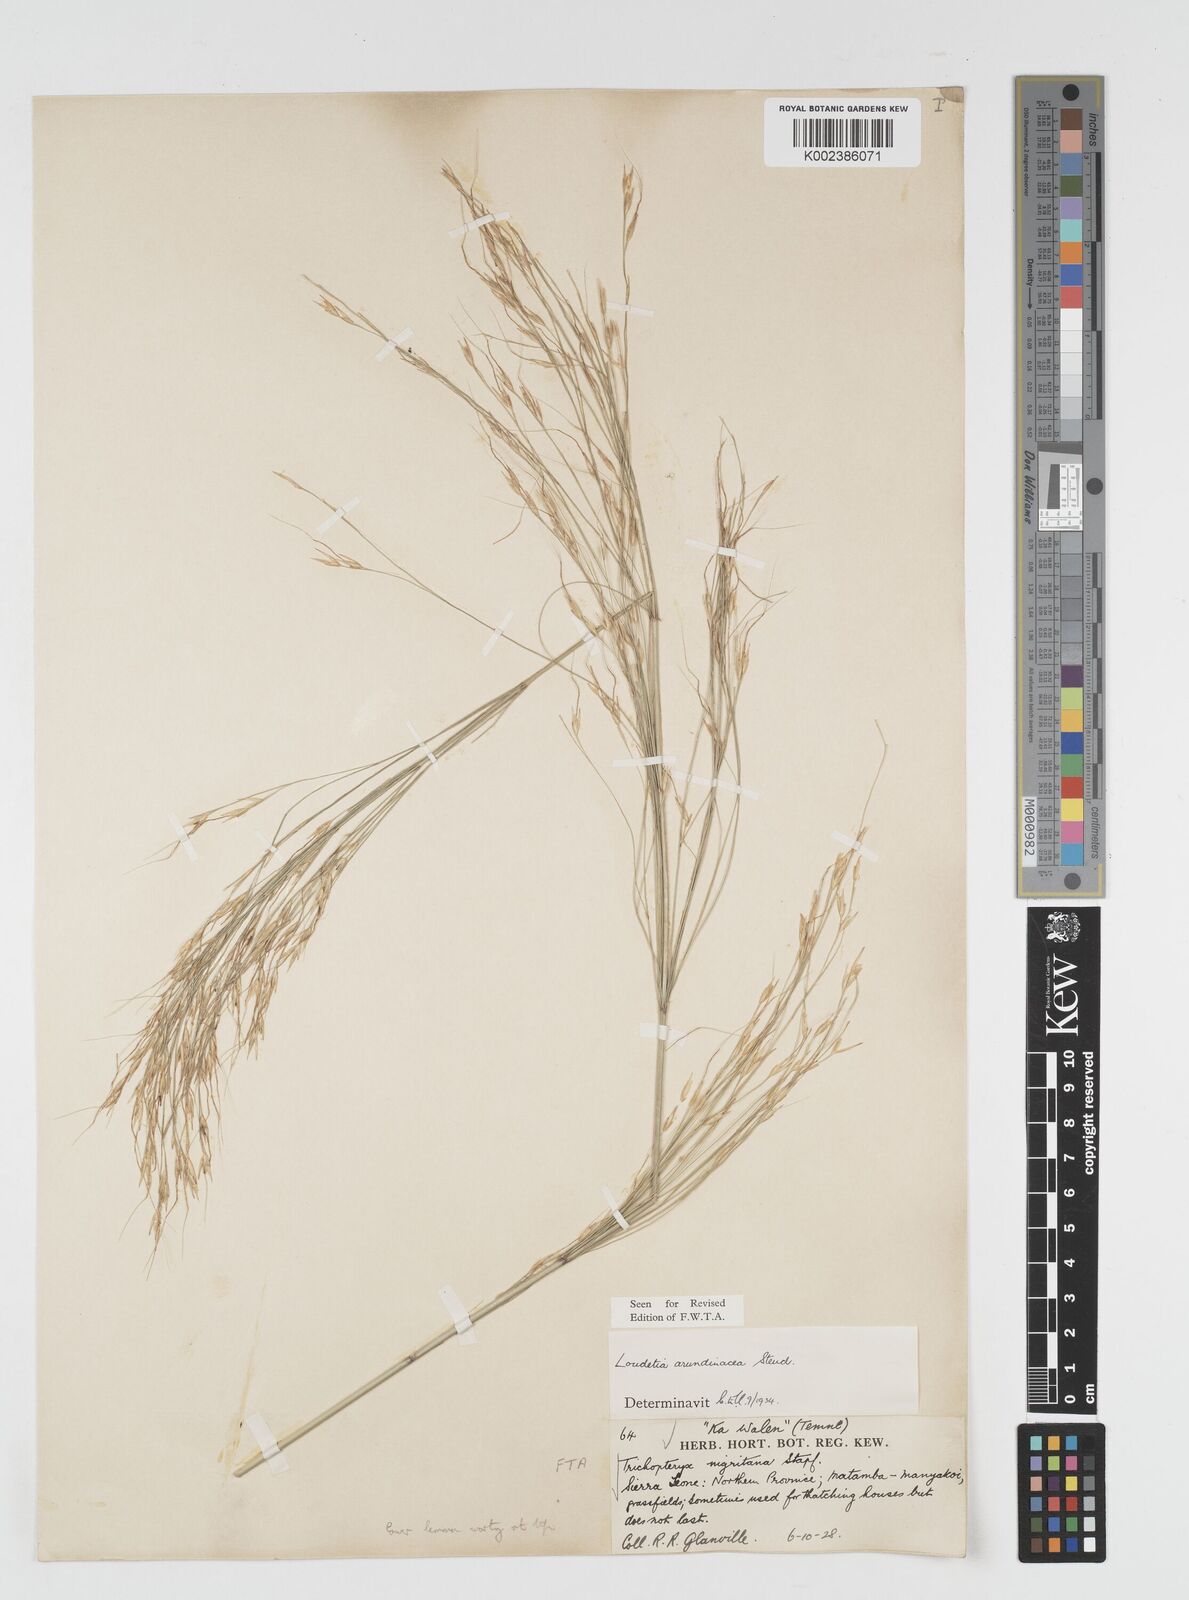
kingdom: Plantae
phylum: Tracheophyta
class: Liliopsida
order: Poales
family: Poaceae
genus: Loudetia
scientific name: Loudetia arundinacea
